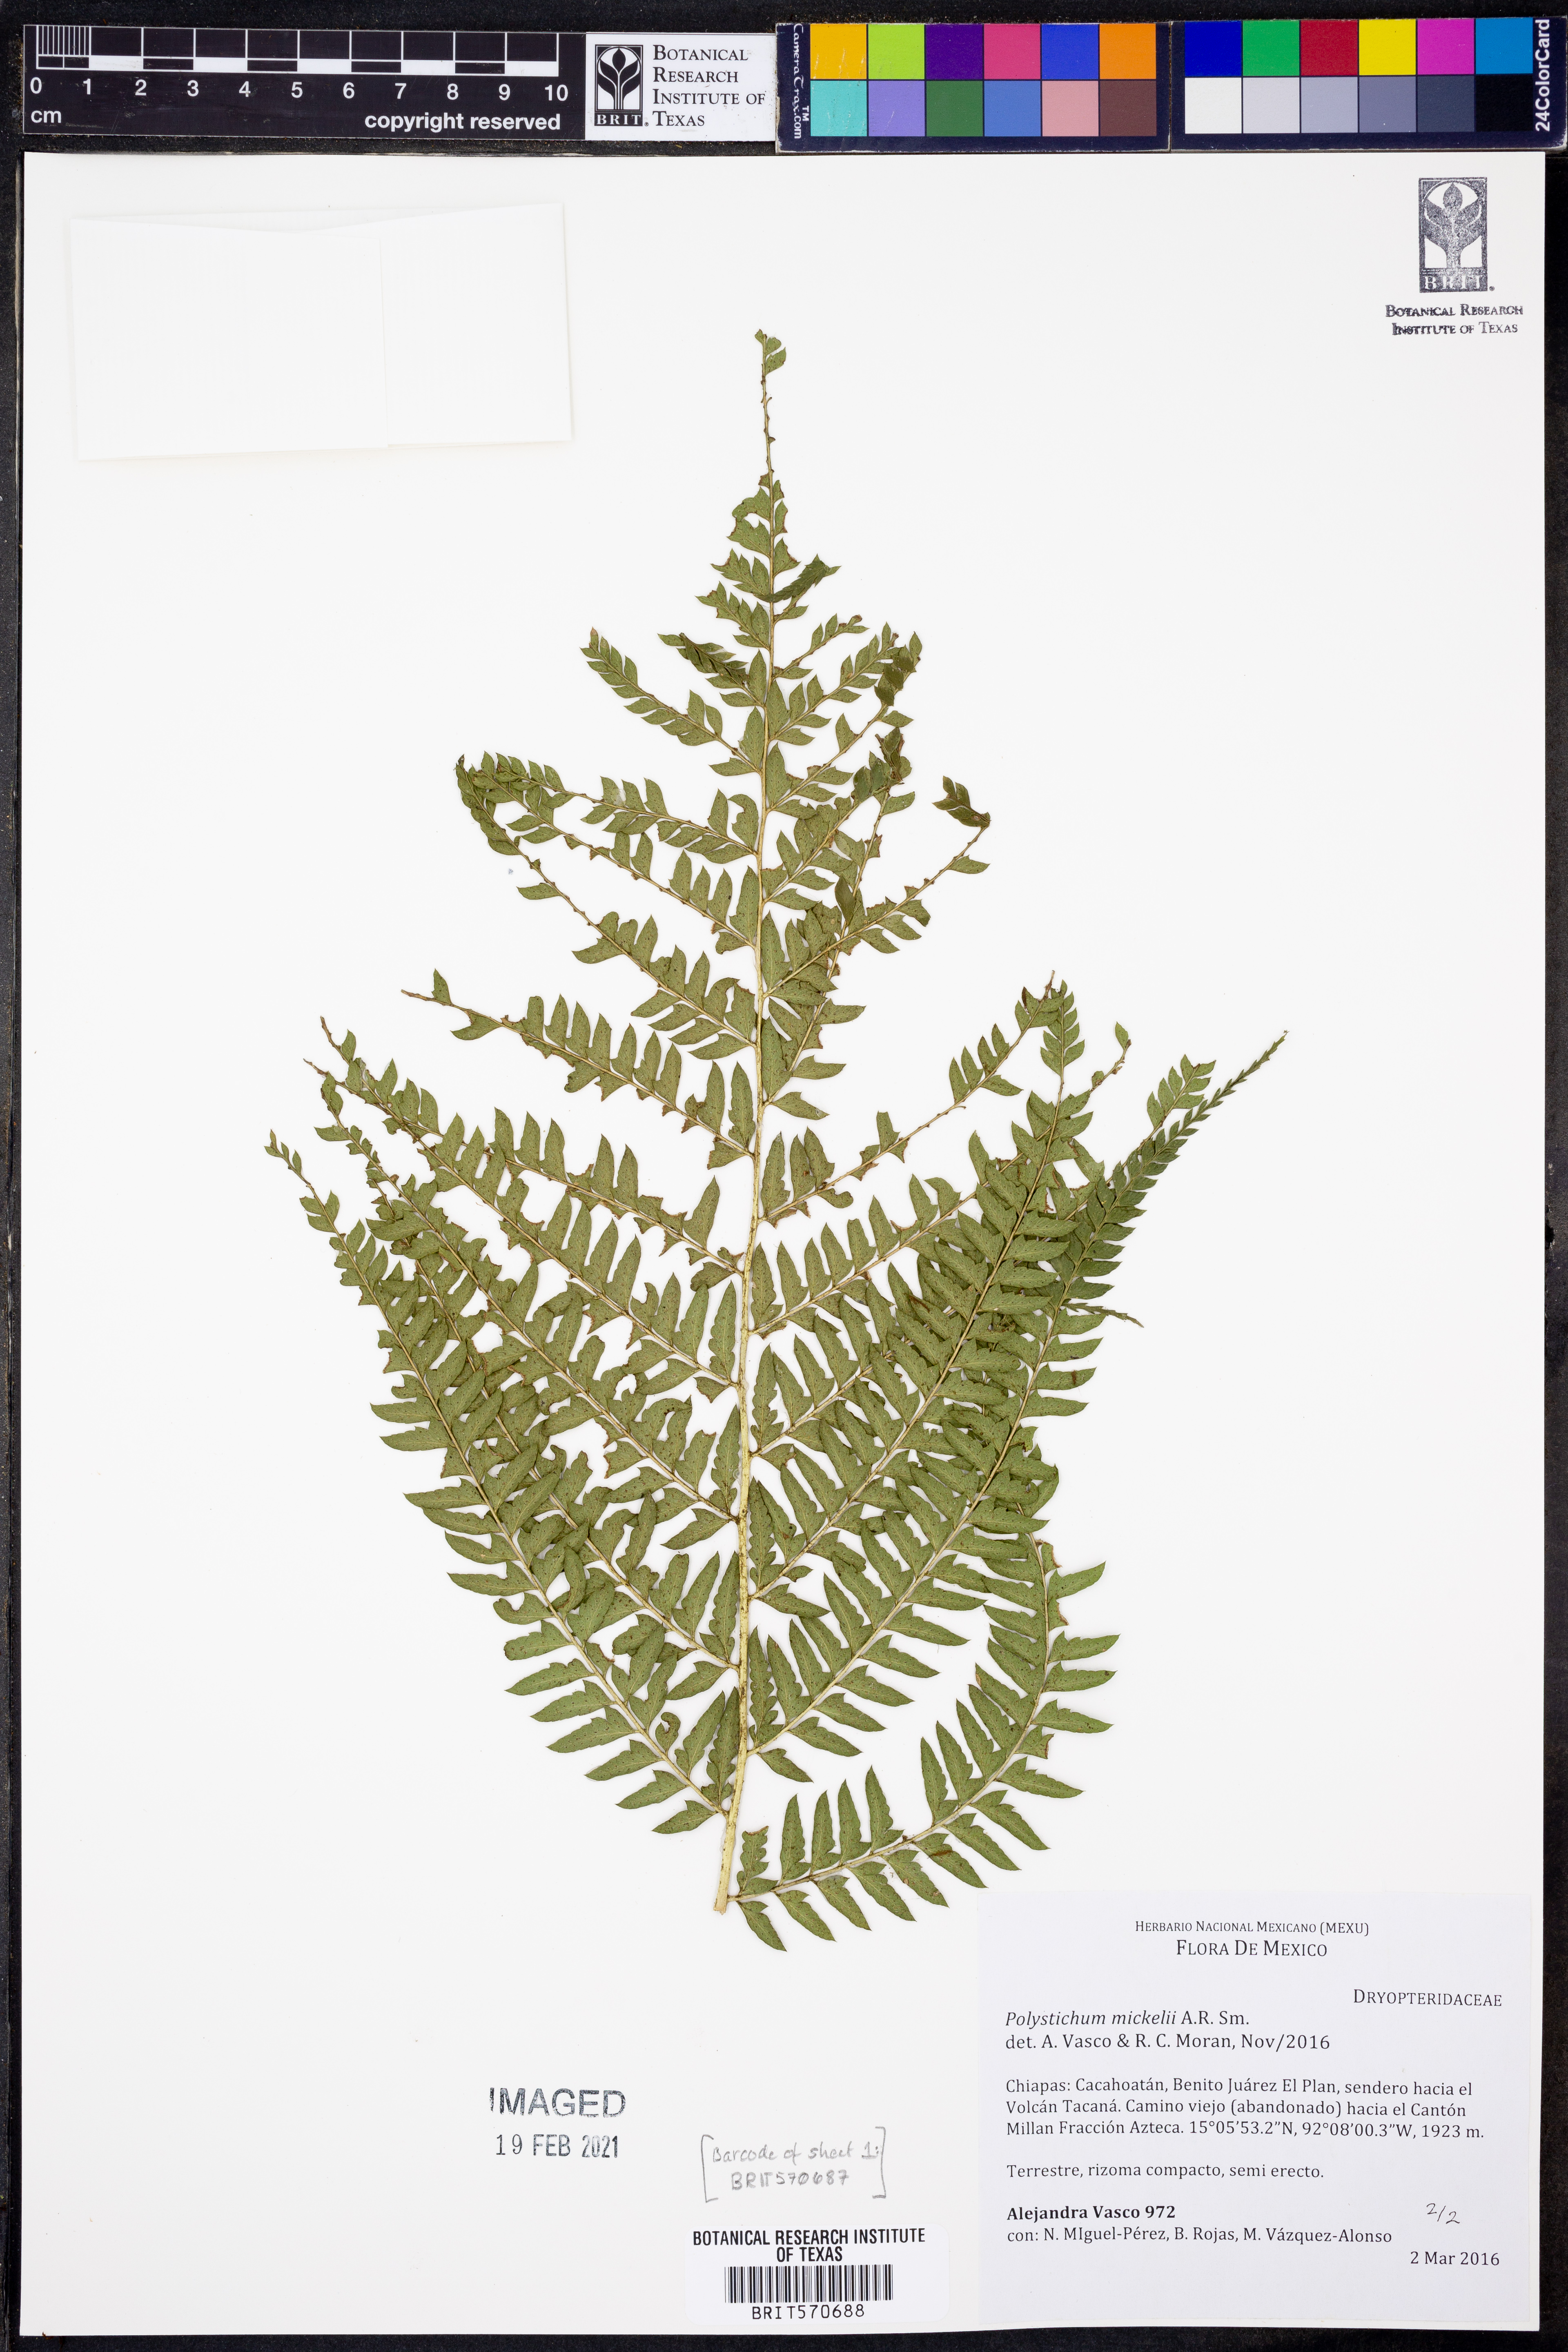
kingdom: Plantae
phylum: Tracheophyta
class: Polypodiopsida
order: Polypodiales
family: Dryopteridaceae
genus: Polystichum
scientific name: Polystichum mickelii
